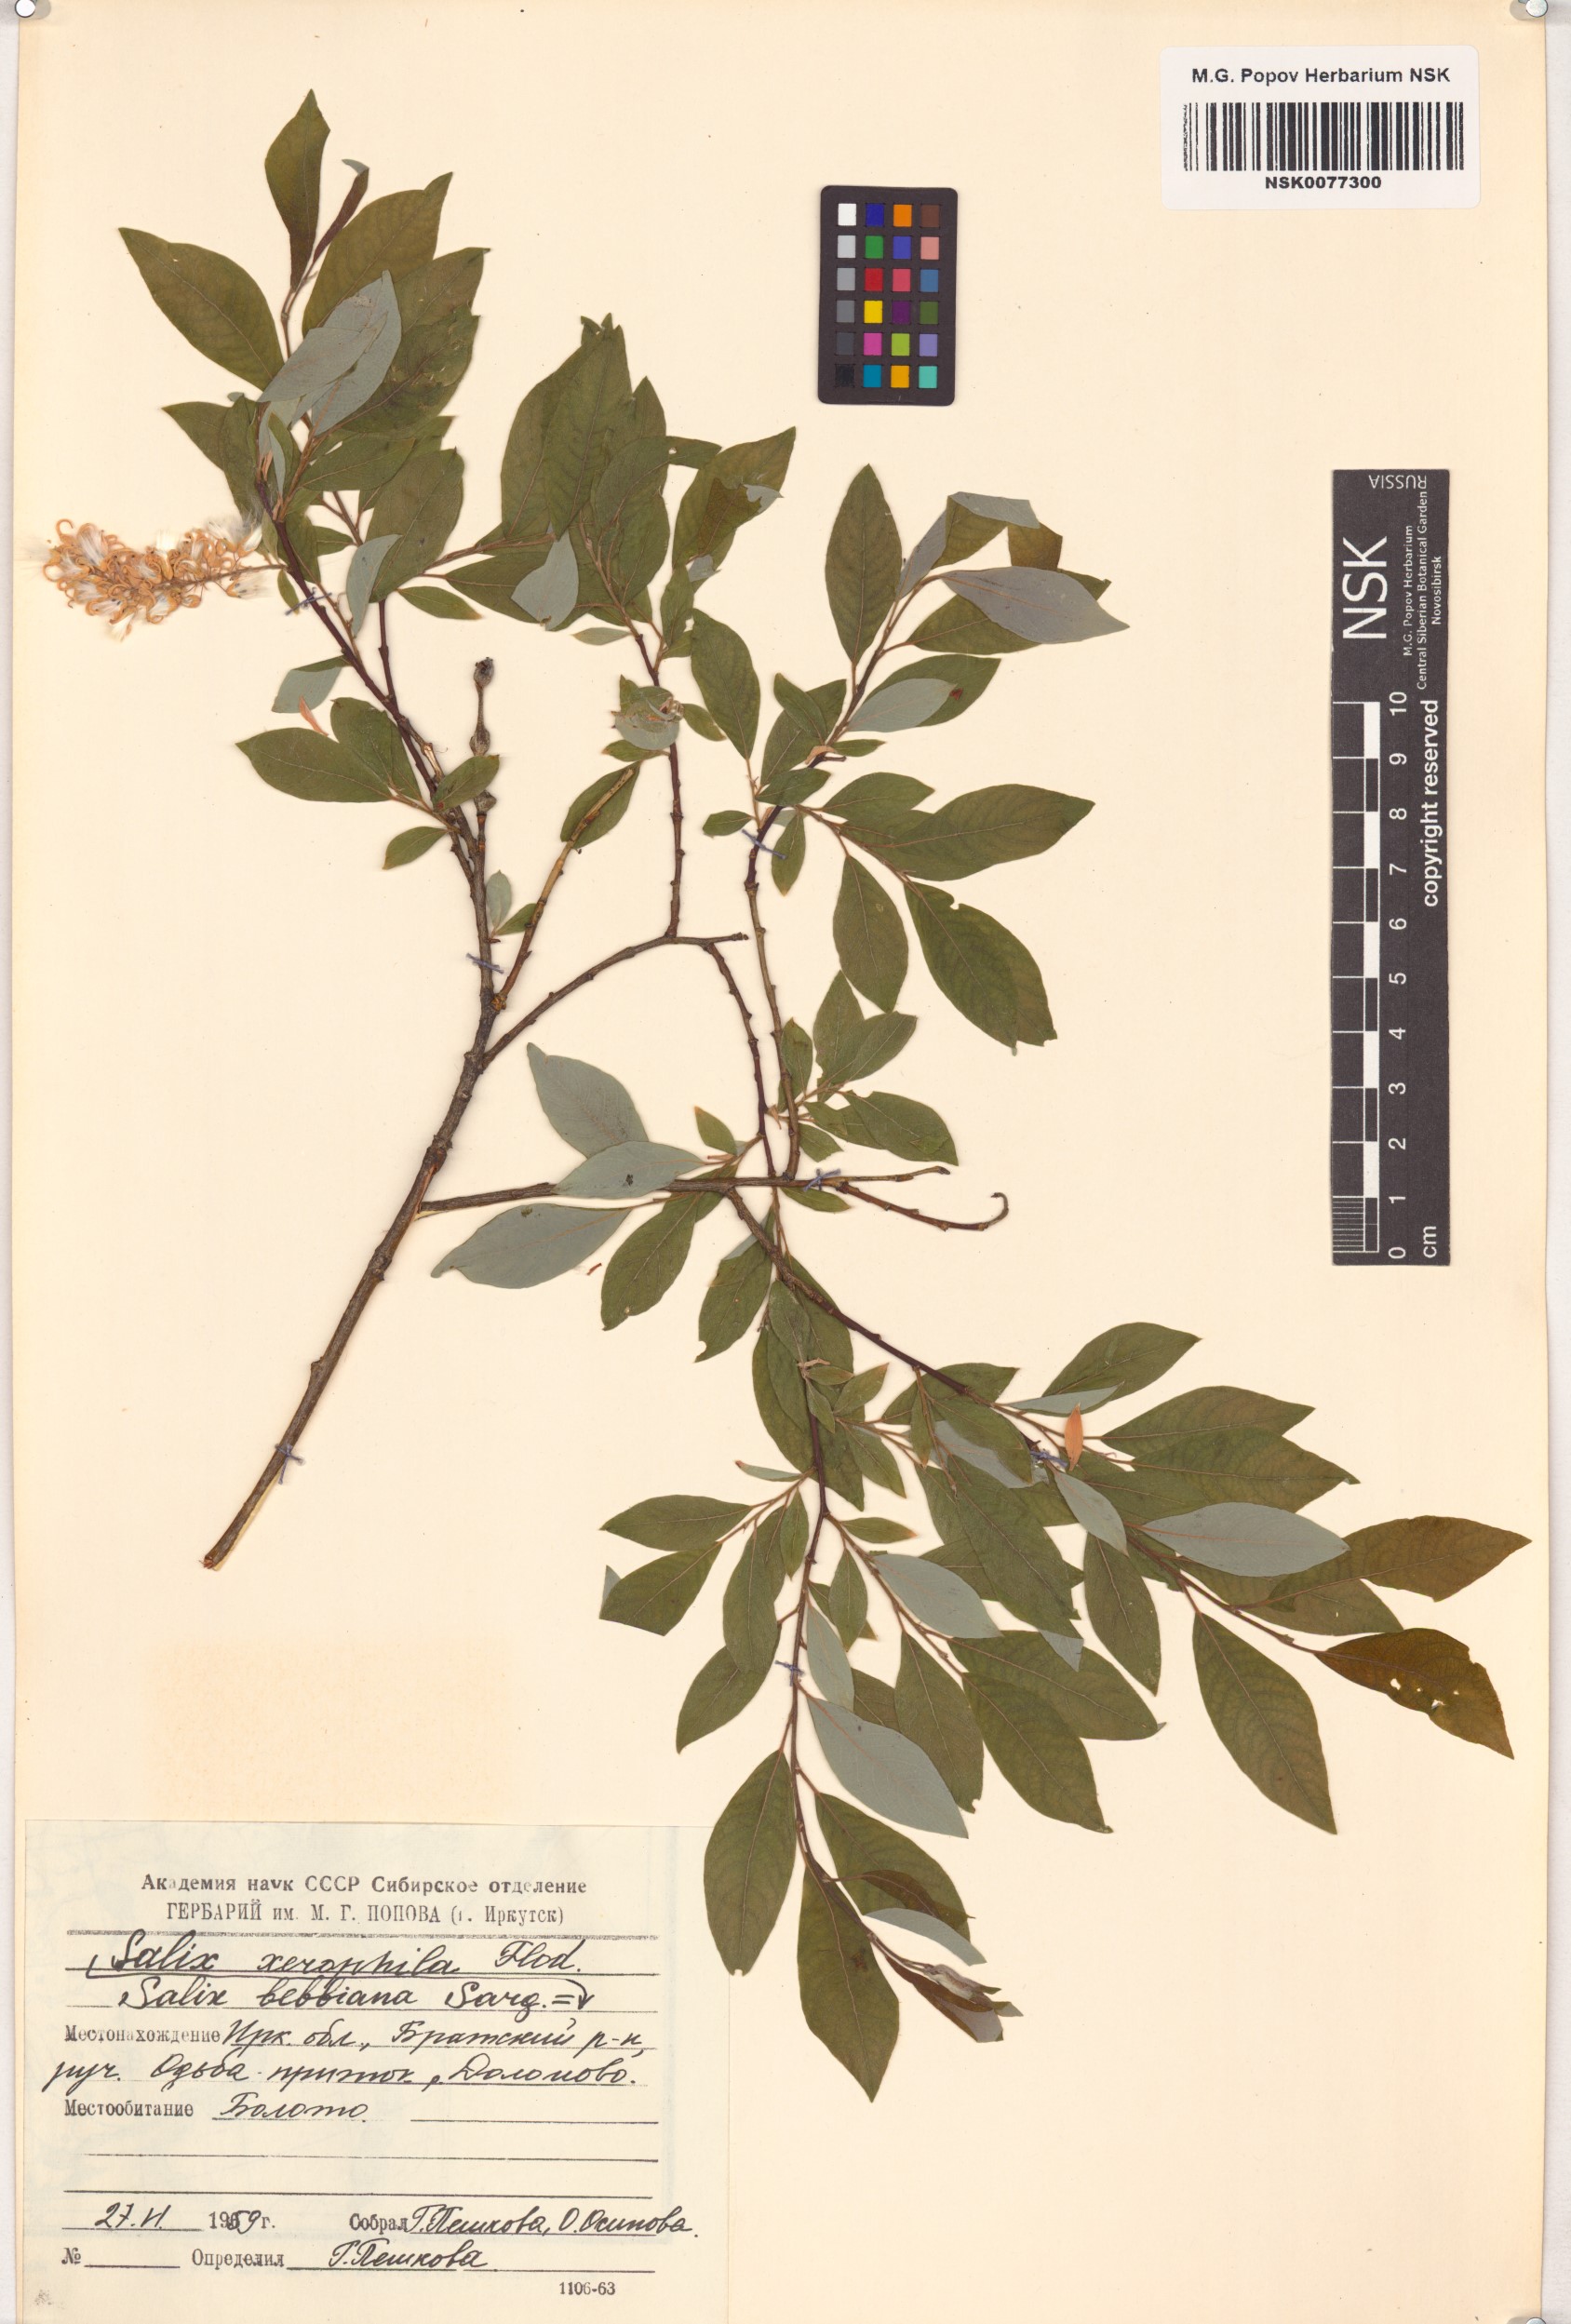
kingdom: Plantae
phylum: Tracheophyta
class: Magnoliopsida
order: Malpighiales
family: Salicaceae
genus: Salix
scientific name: Salix bebbiana
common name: Bebb's willow
